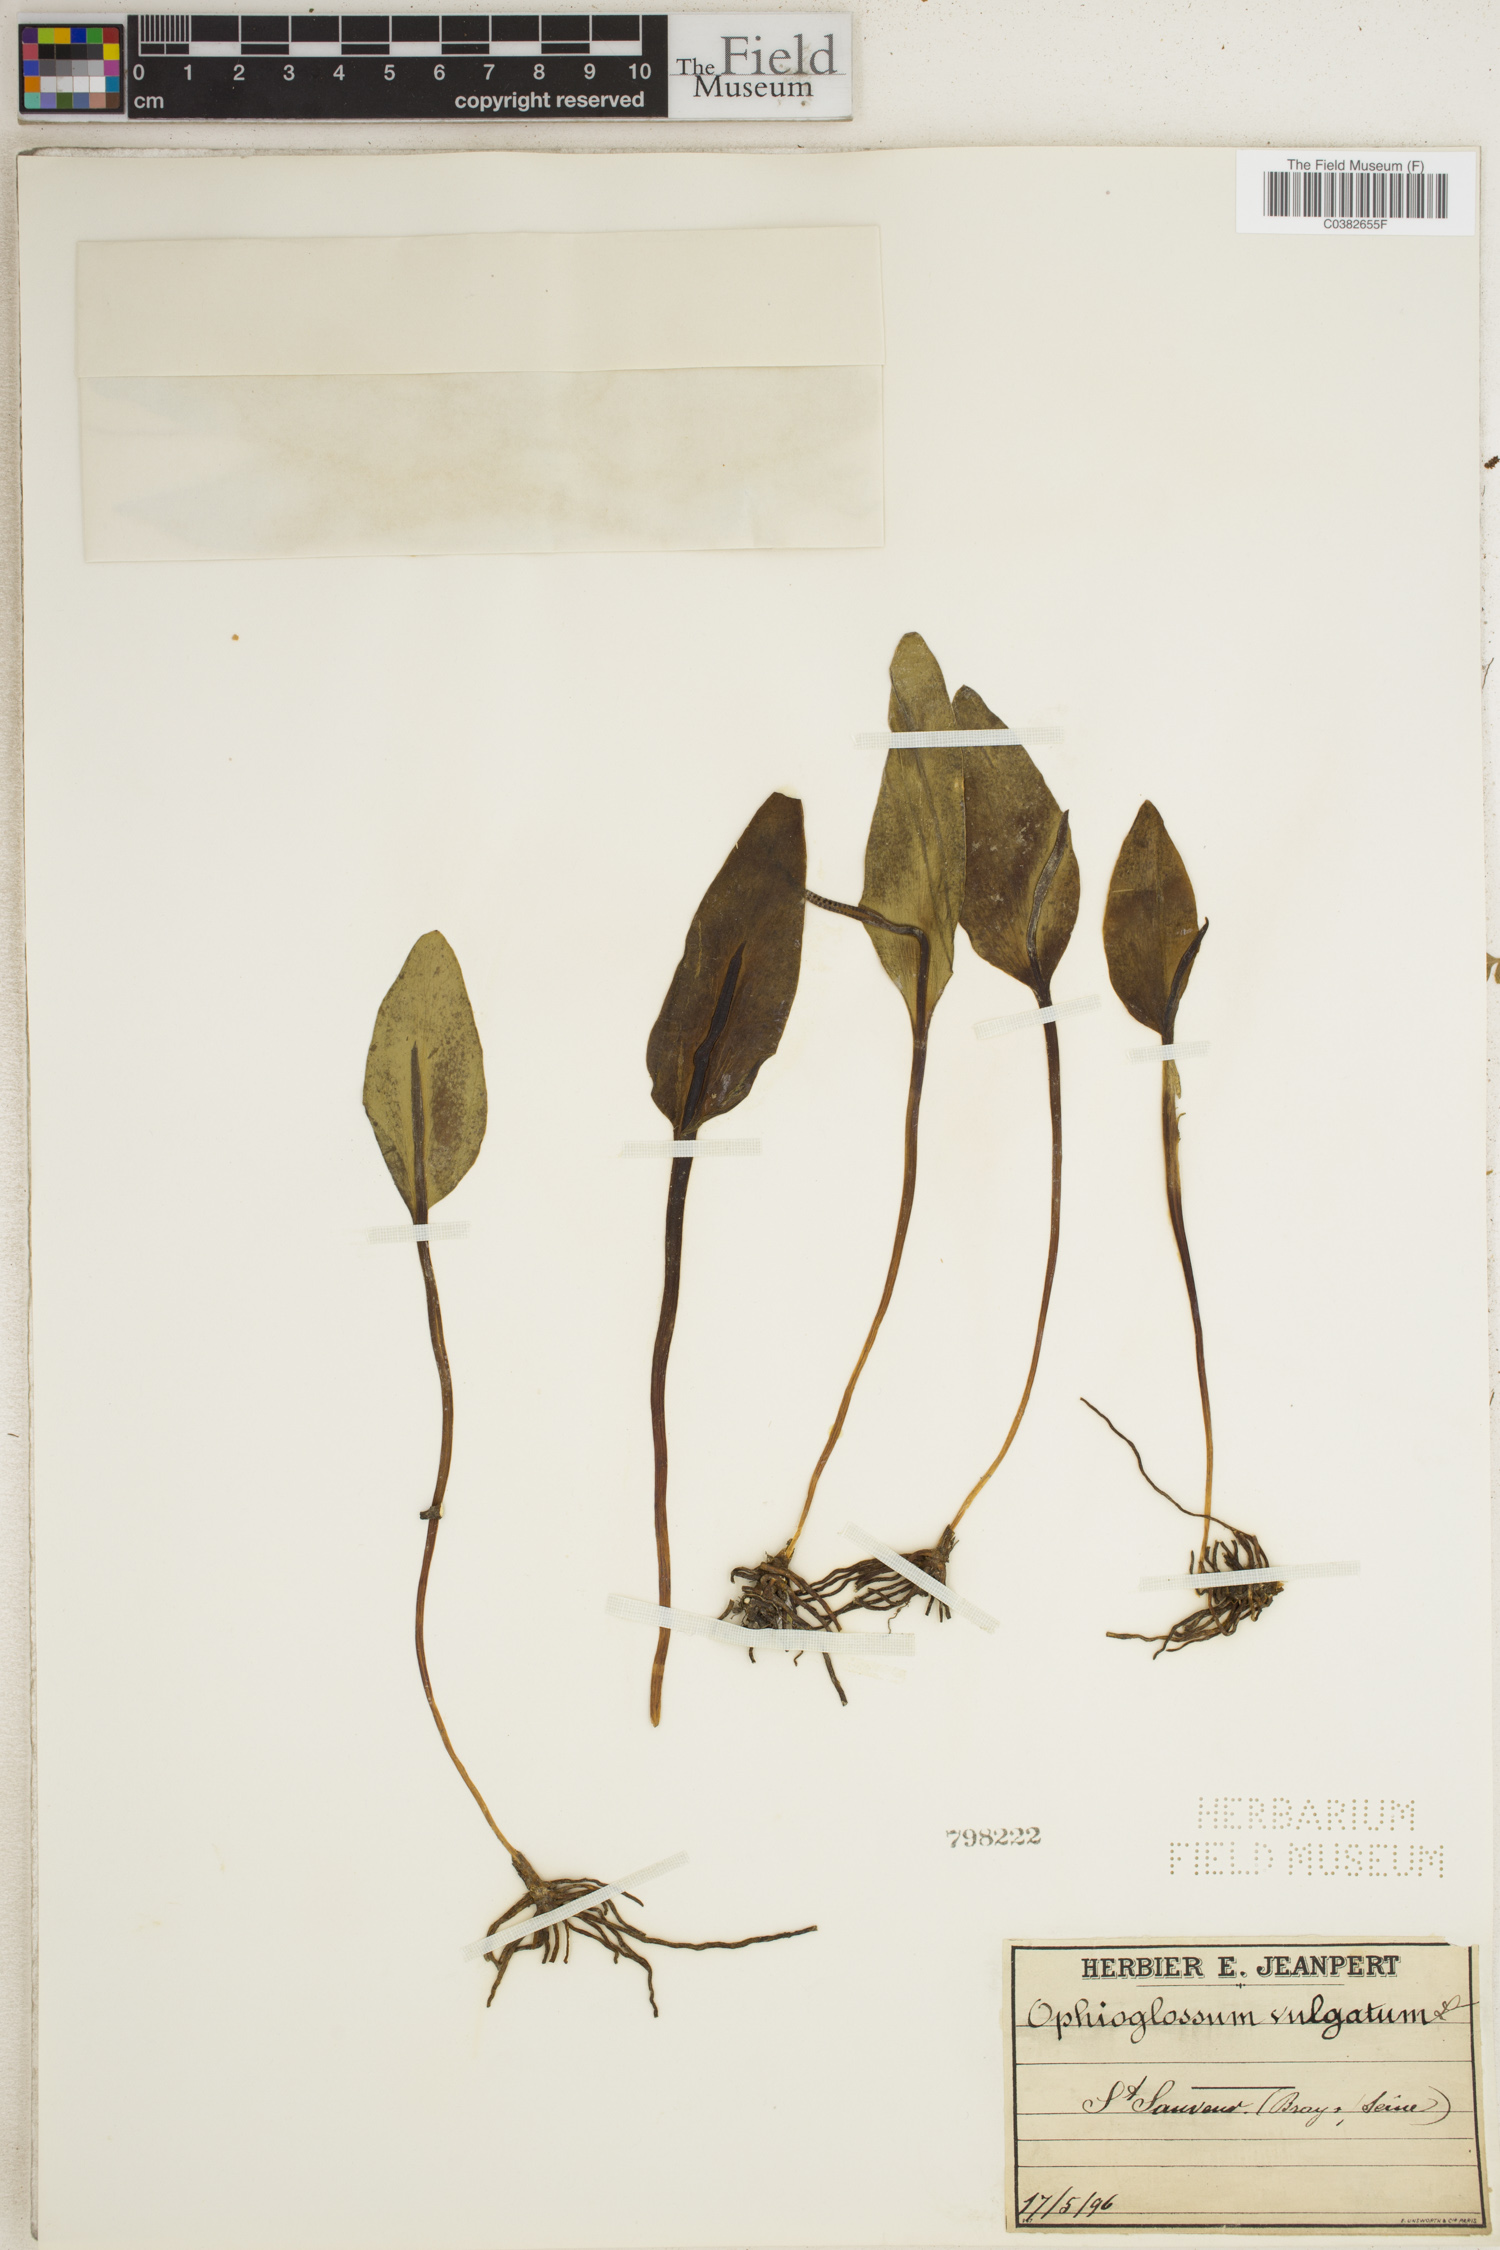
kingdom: Plantae
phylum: Tracheophyta
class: Polypodiopsida
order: Ophioglossales
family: Ophioglossaceae
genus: Ophioglossum
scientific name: Ophioglossum vulgatum
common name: Adder's-tongue
